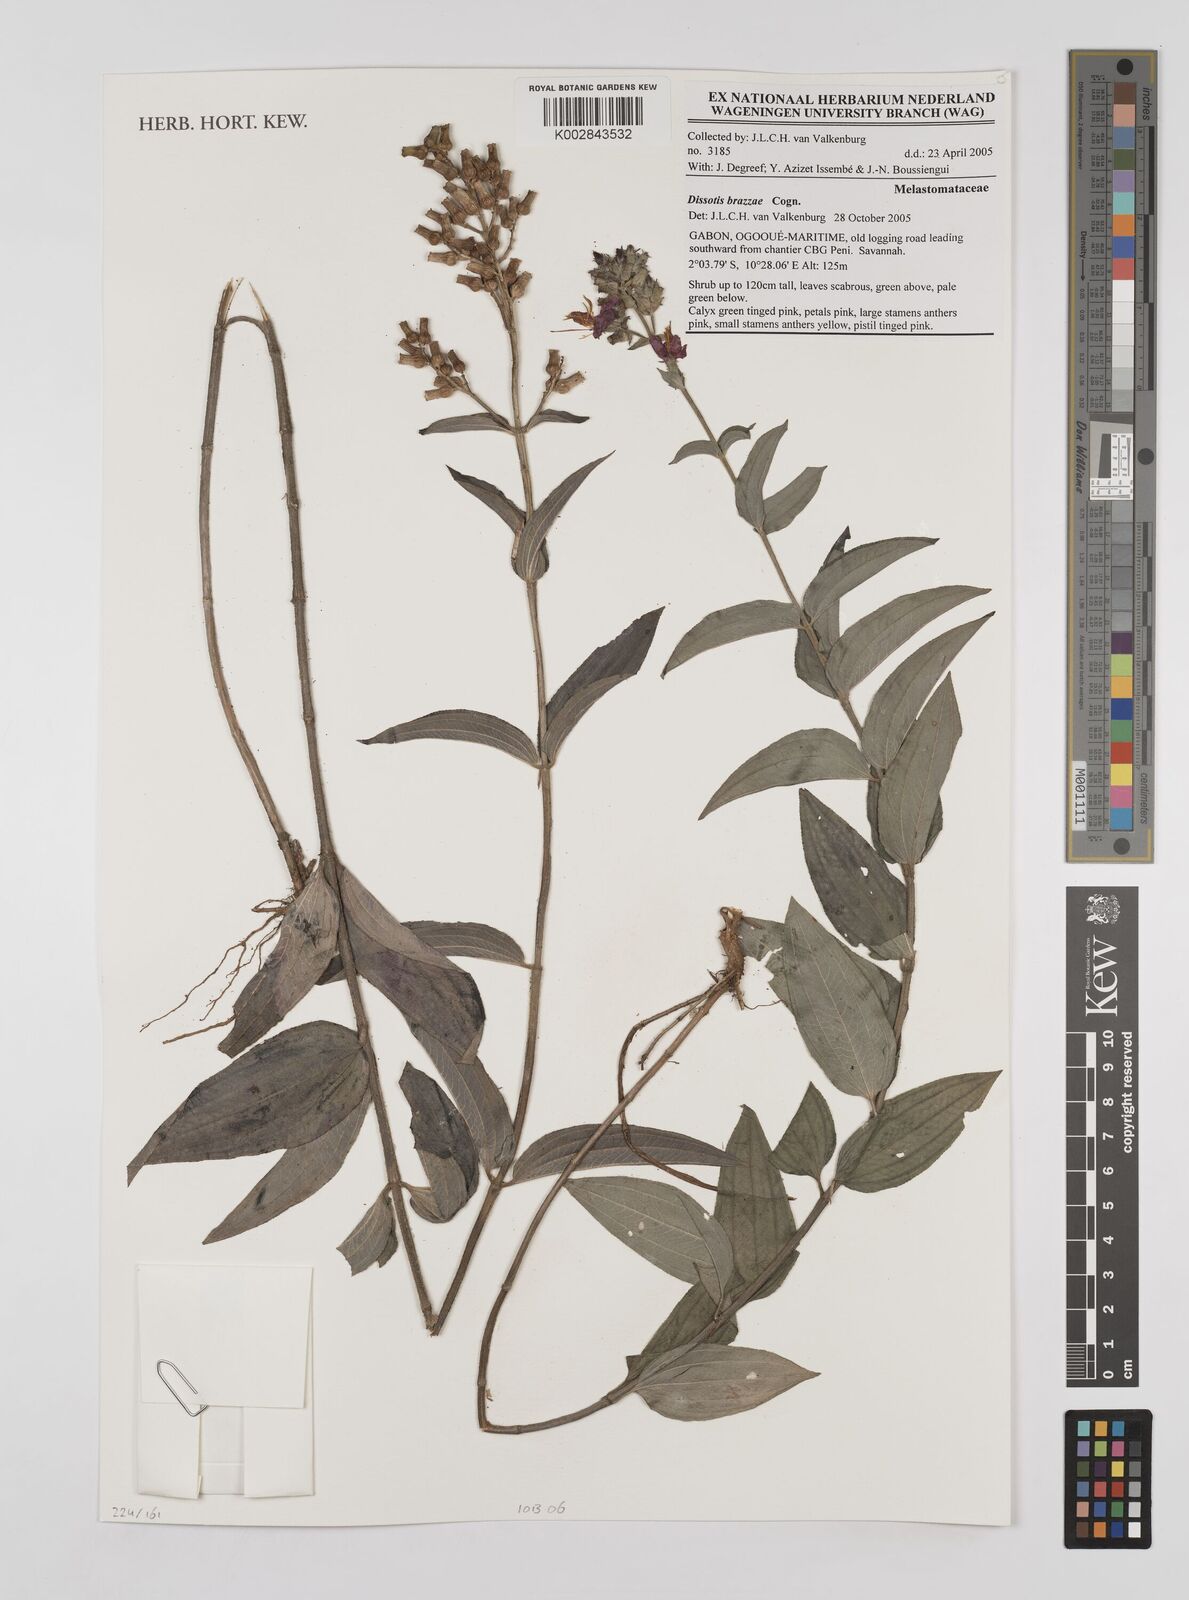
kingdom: Plantae
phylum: Tracheophyta
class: Magnoliopsida
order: Myrtales
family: Melastomataceae
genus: Dupineta
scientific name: Dupineta brazzae
